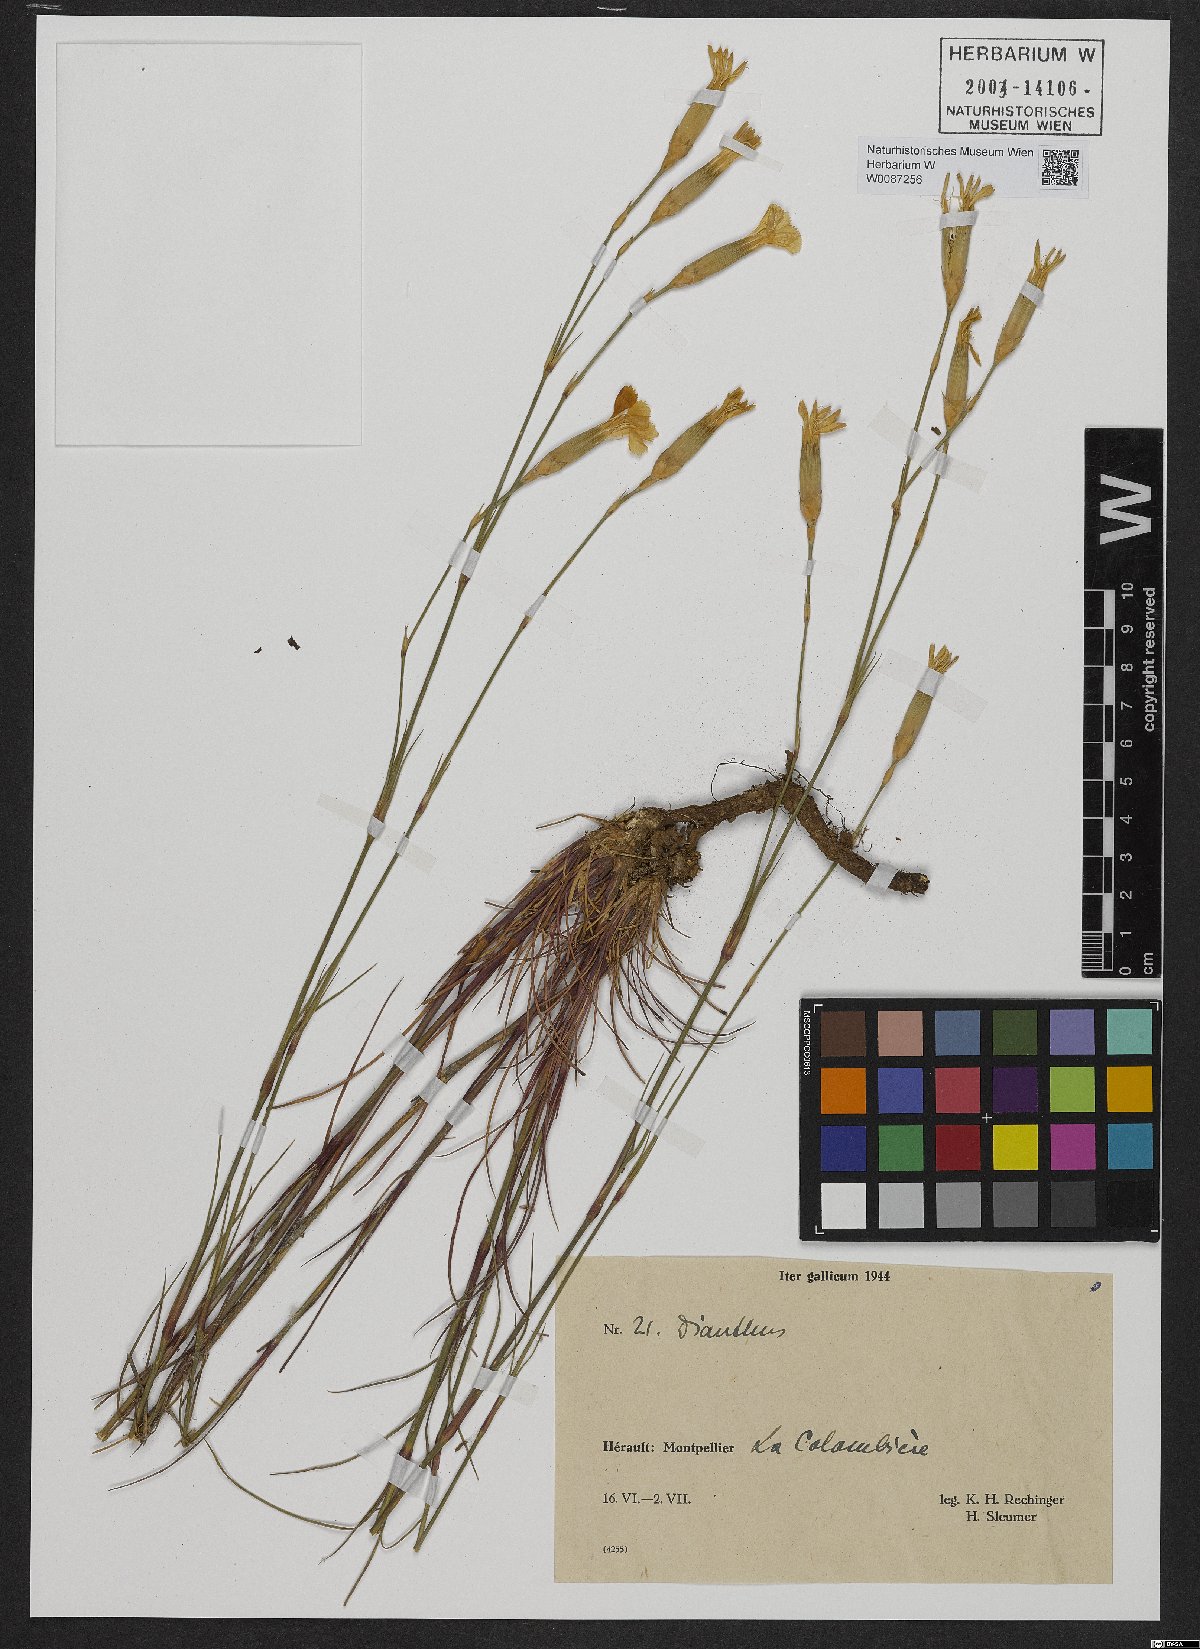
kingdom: Plantae
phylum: Tracheophyta
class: Magnoliopsida
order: Caryophyllales
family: Caryophyllaceae
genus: Dianthus
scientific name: Dianthus
